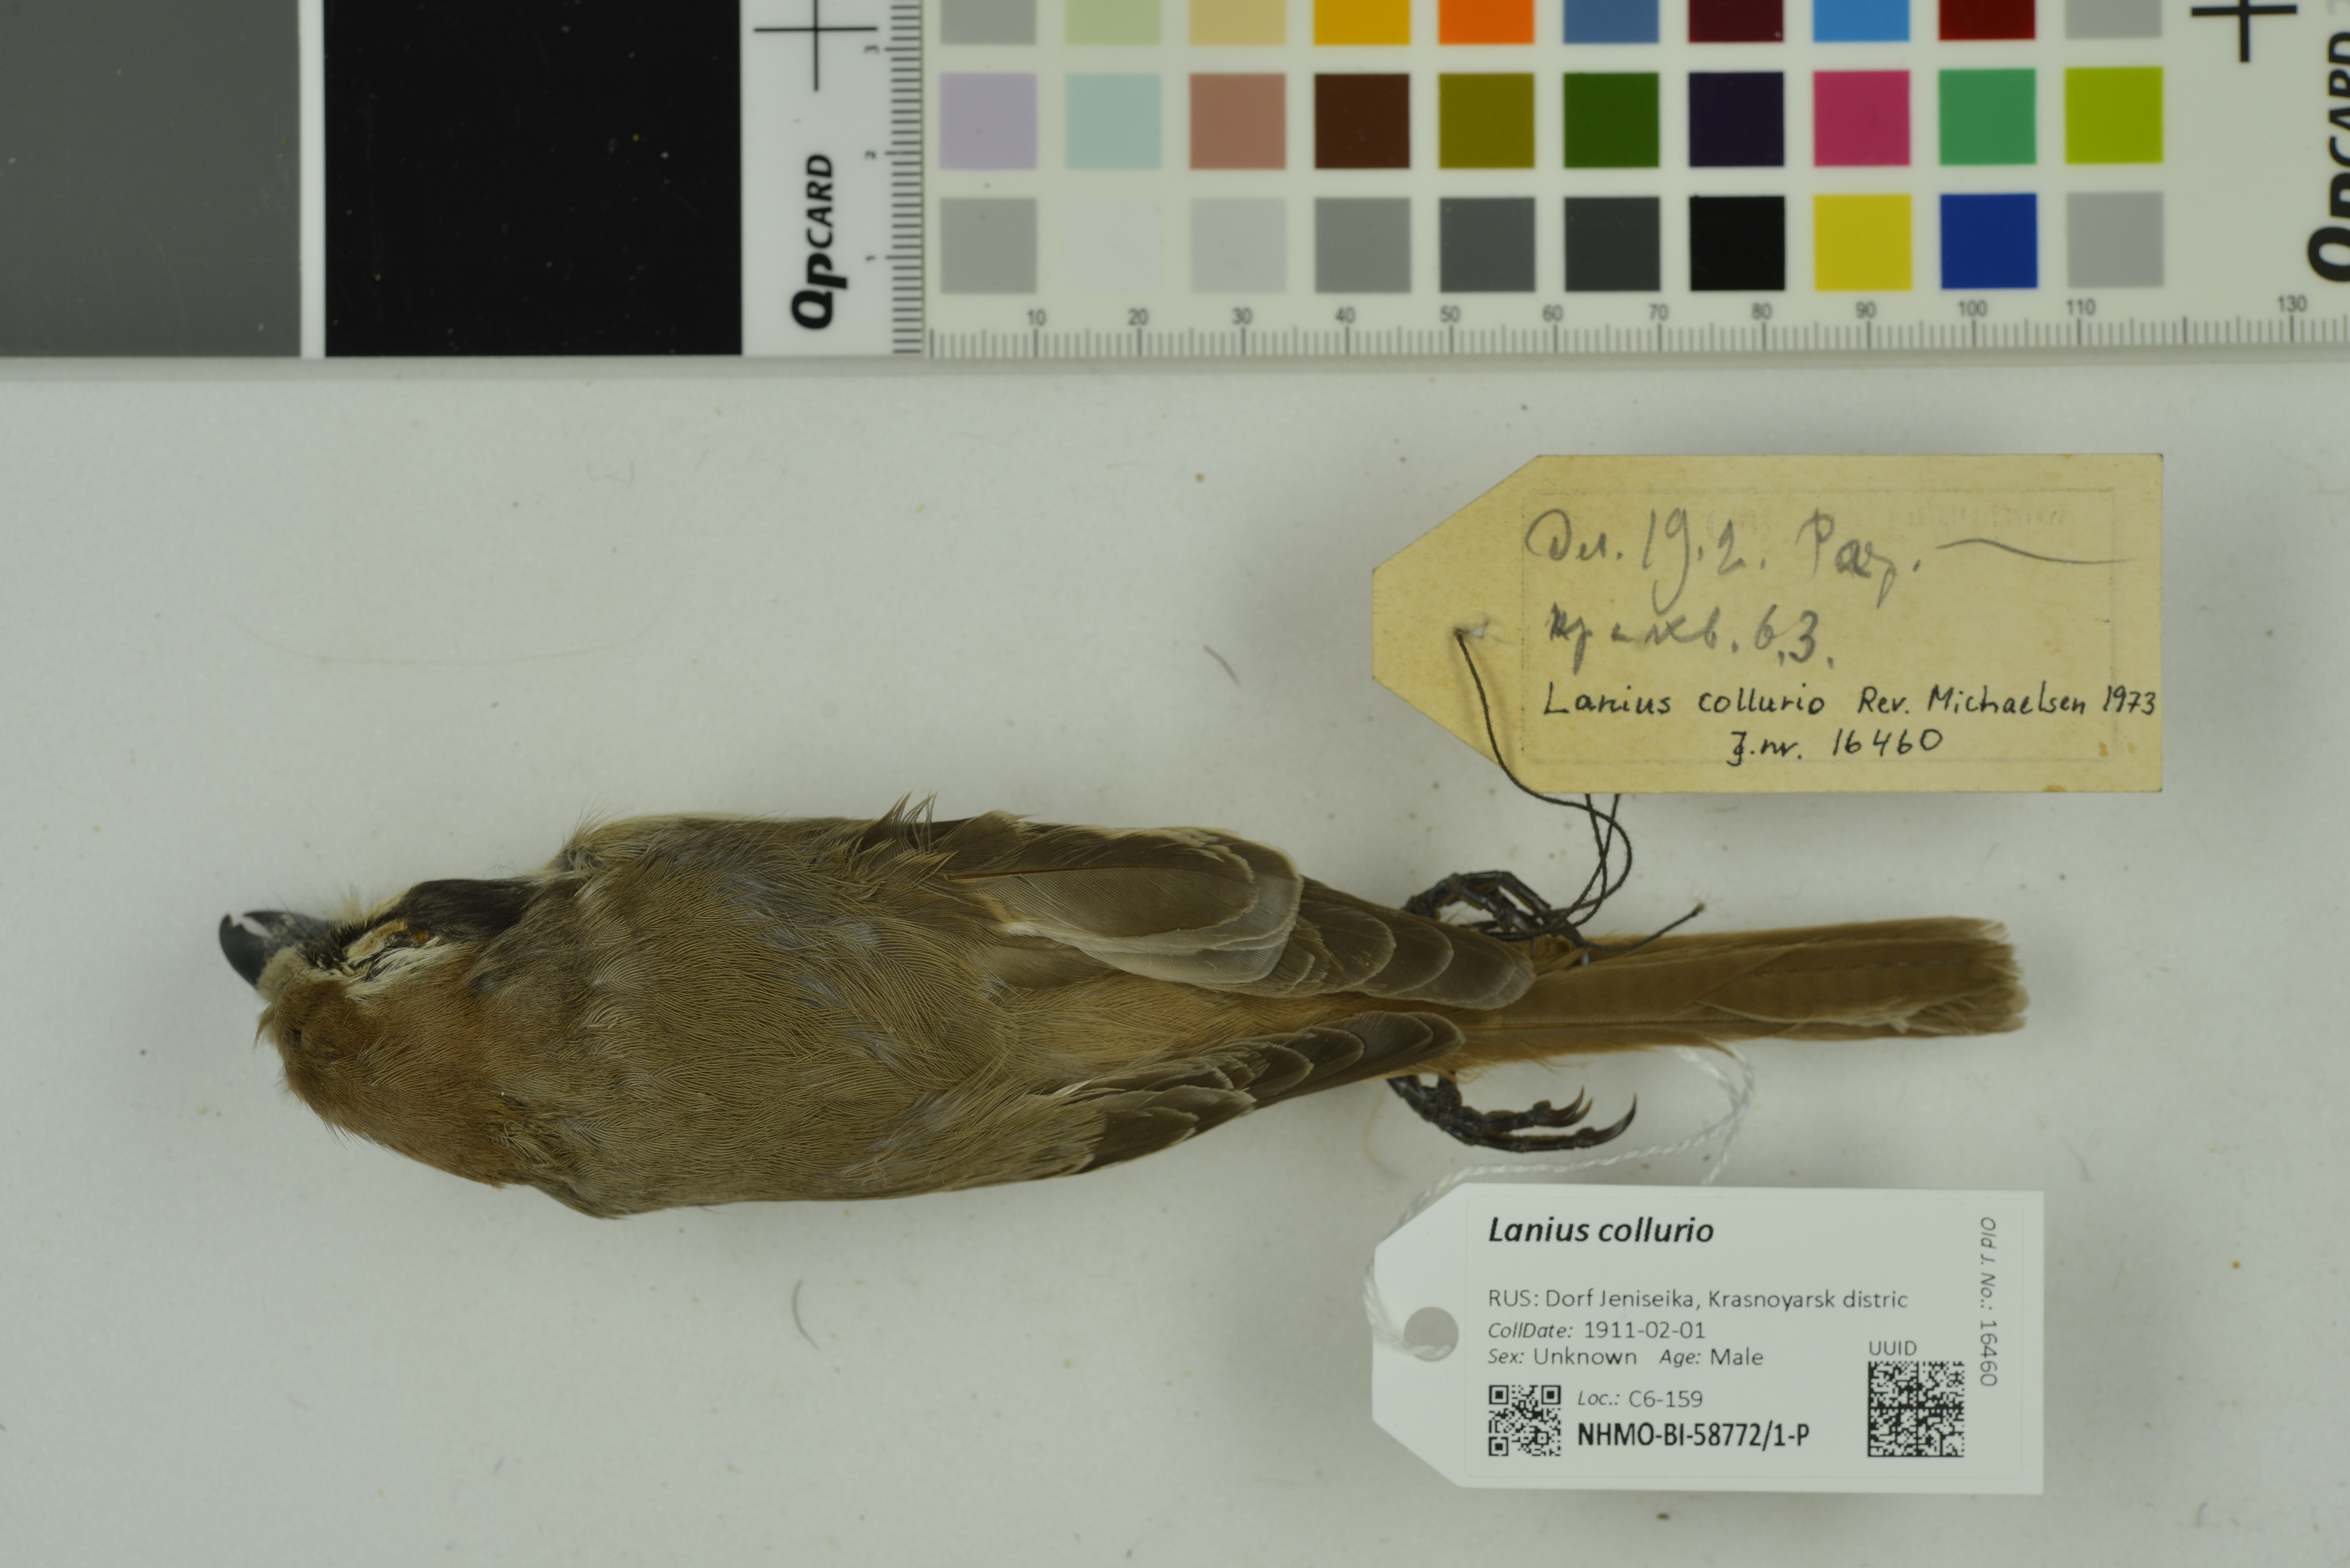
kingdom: Animalia
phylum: Chordata
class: Aves
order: Passeriformes
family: Laniidae
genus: Lanius
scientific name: Lanius collurio
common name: Red-backed shrike
